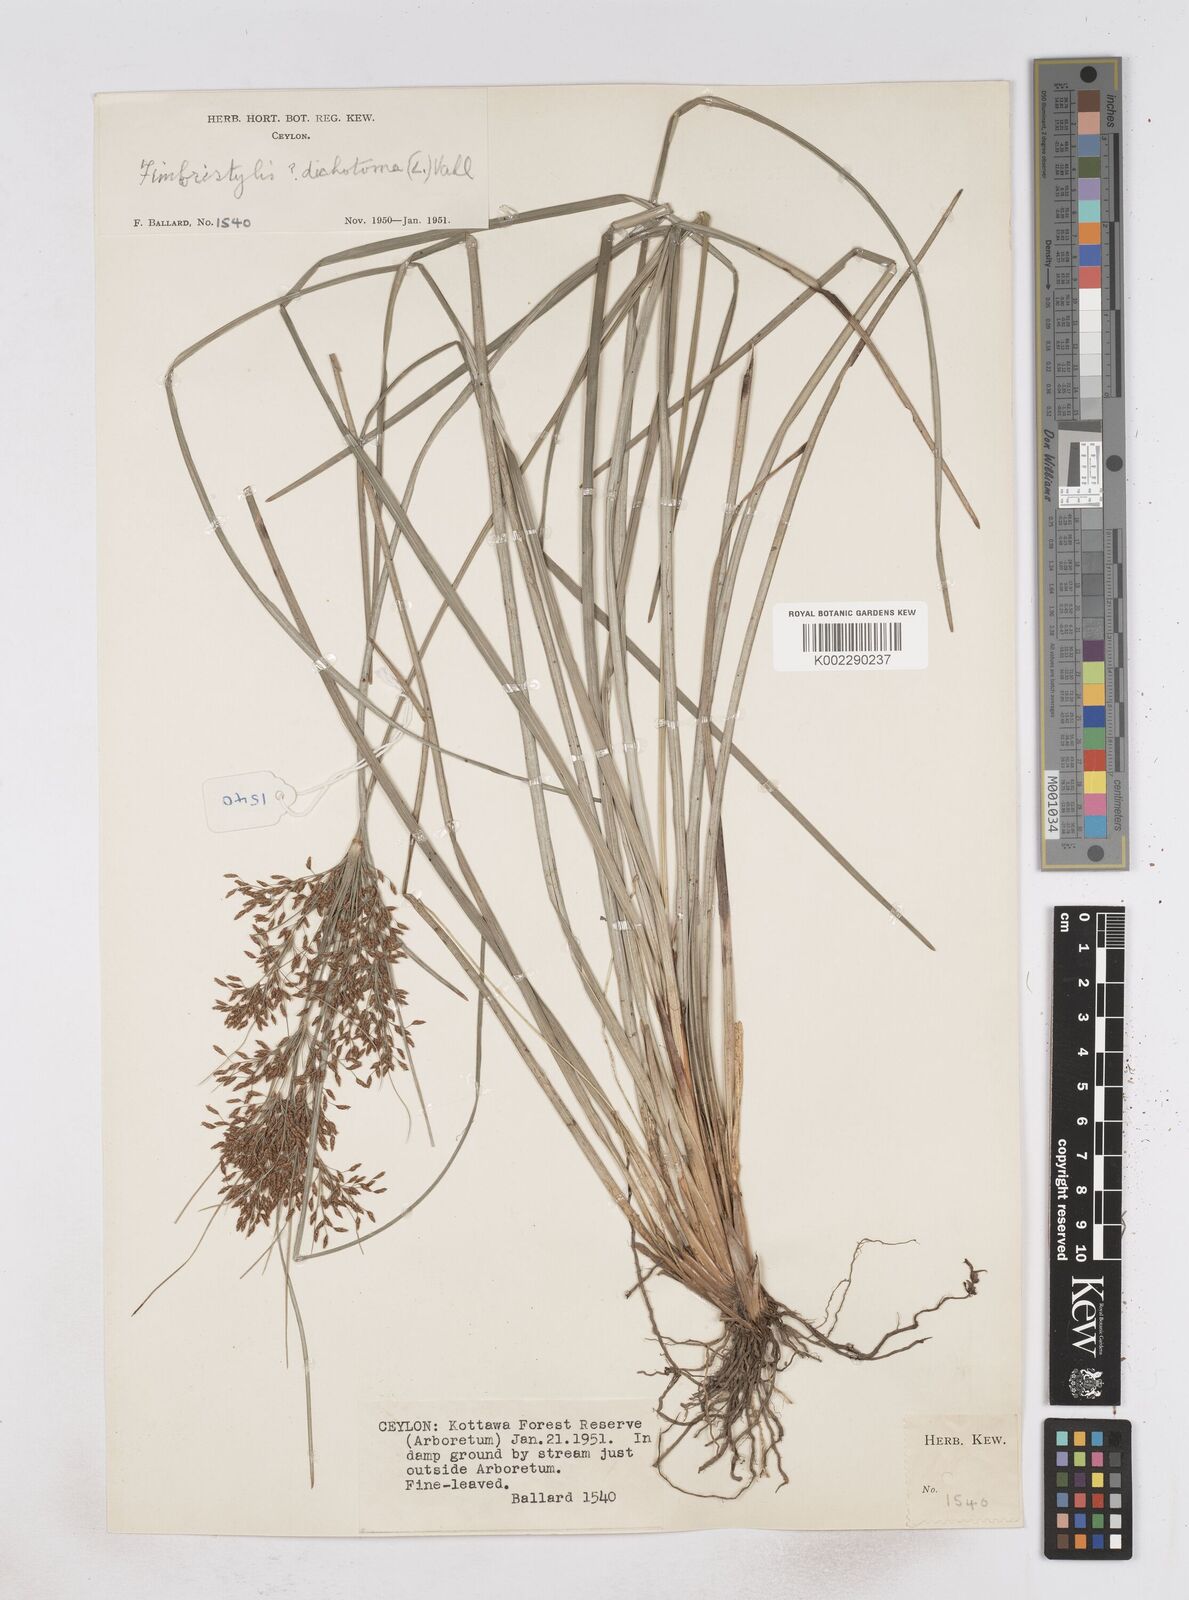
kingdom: Plantae
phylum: Tracheophyta
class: Liliopsida
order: Poales
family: Cyperaceae
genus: Fimbristylis
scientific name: Fimbristylis
